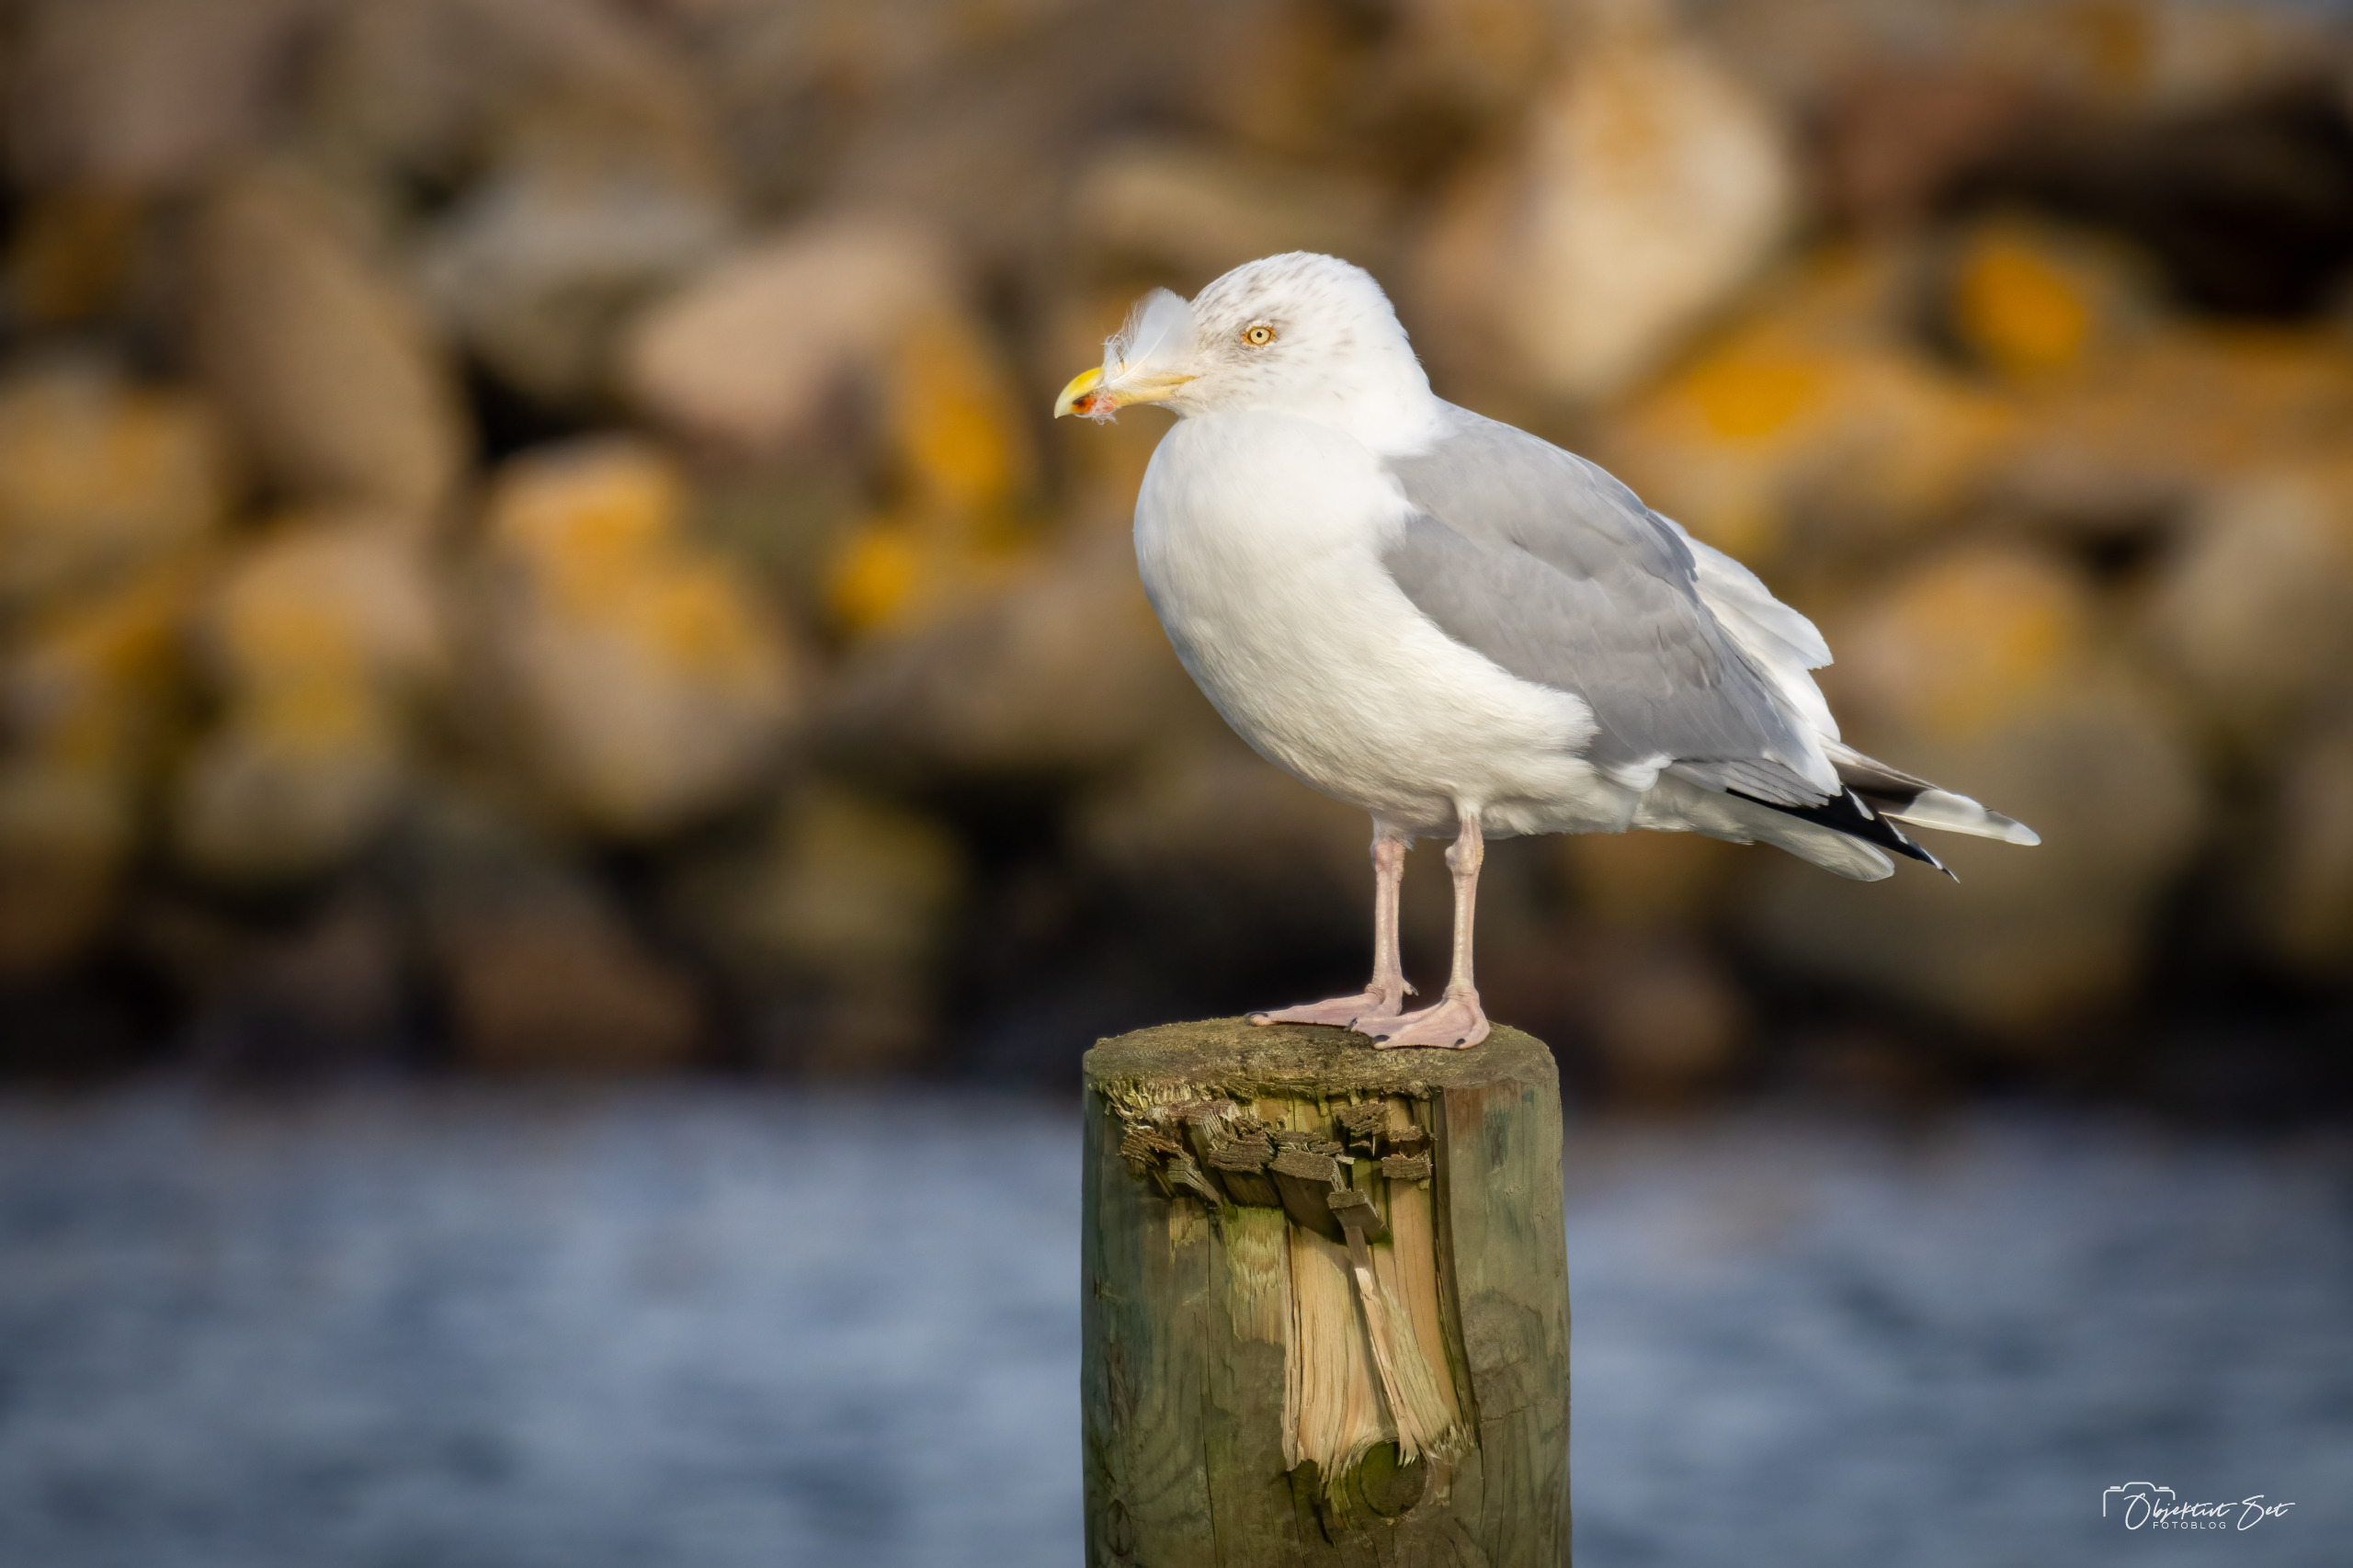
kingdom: Animalia
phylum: Chordata
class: Aves
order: Charadriiformes
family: Laridae
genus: Larus
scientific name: Larus argentatus
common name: Sølvmåge
